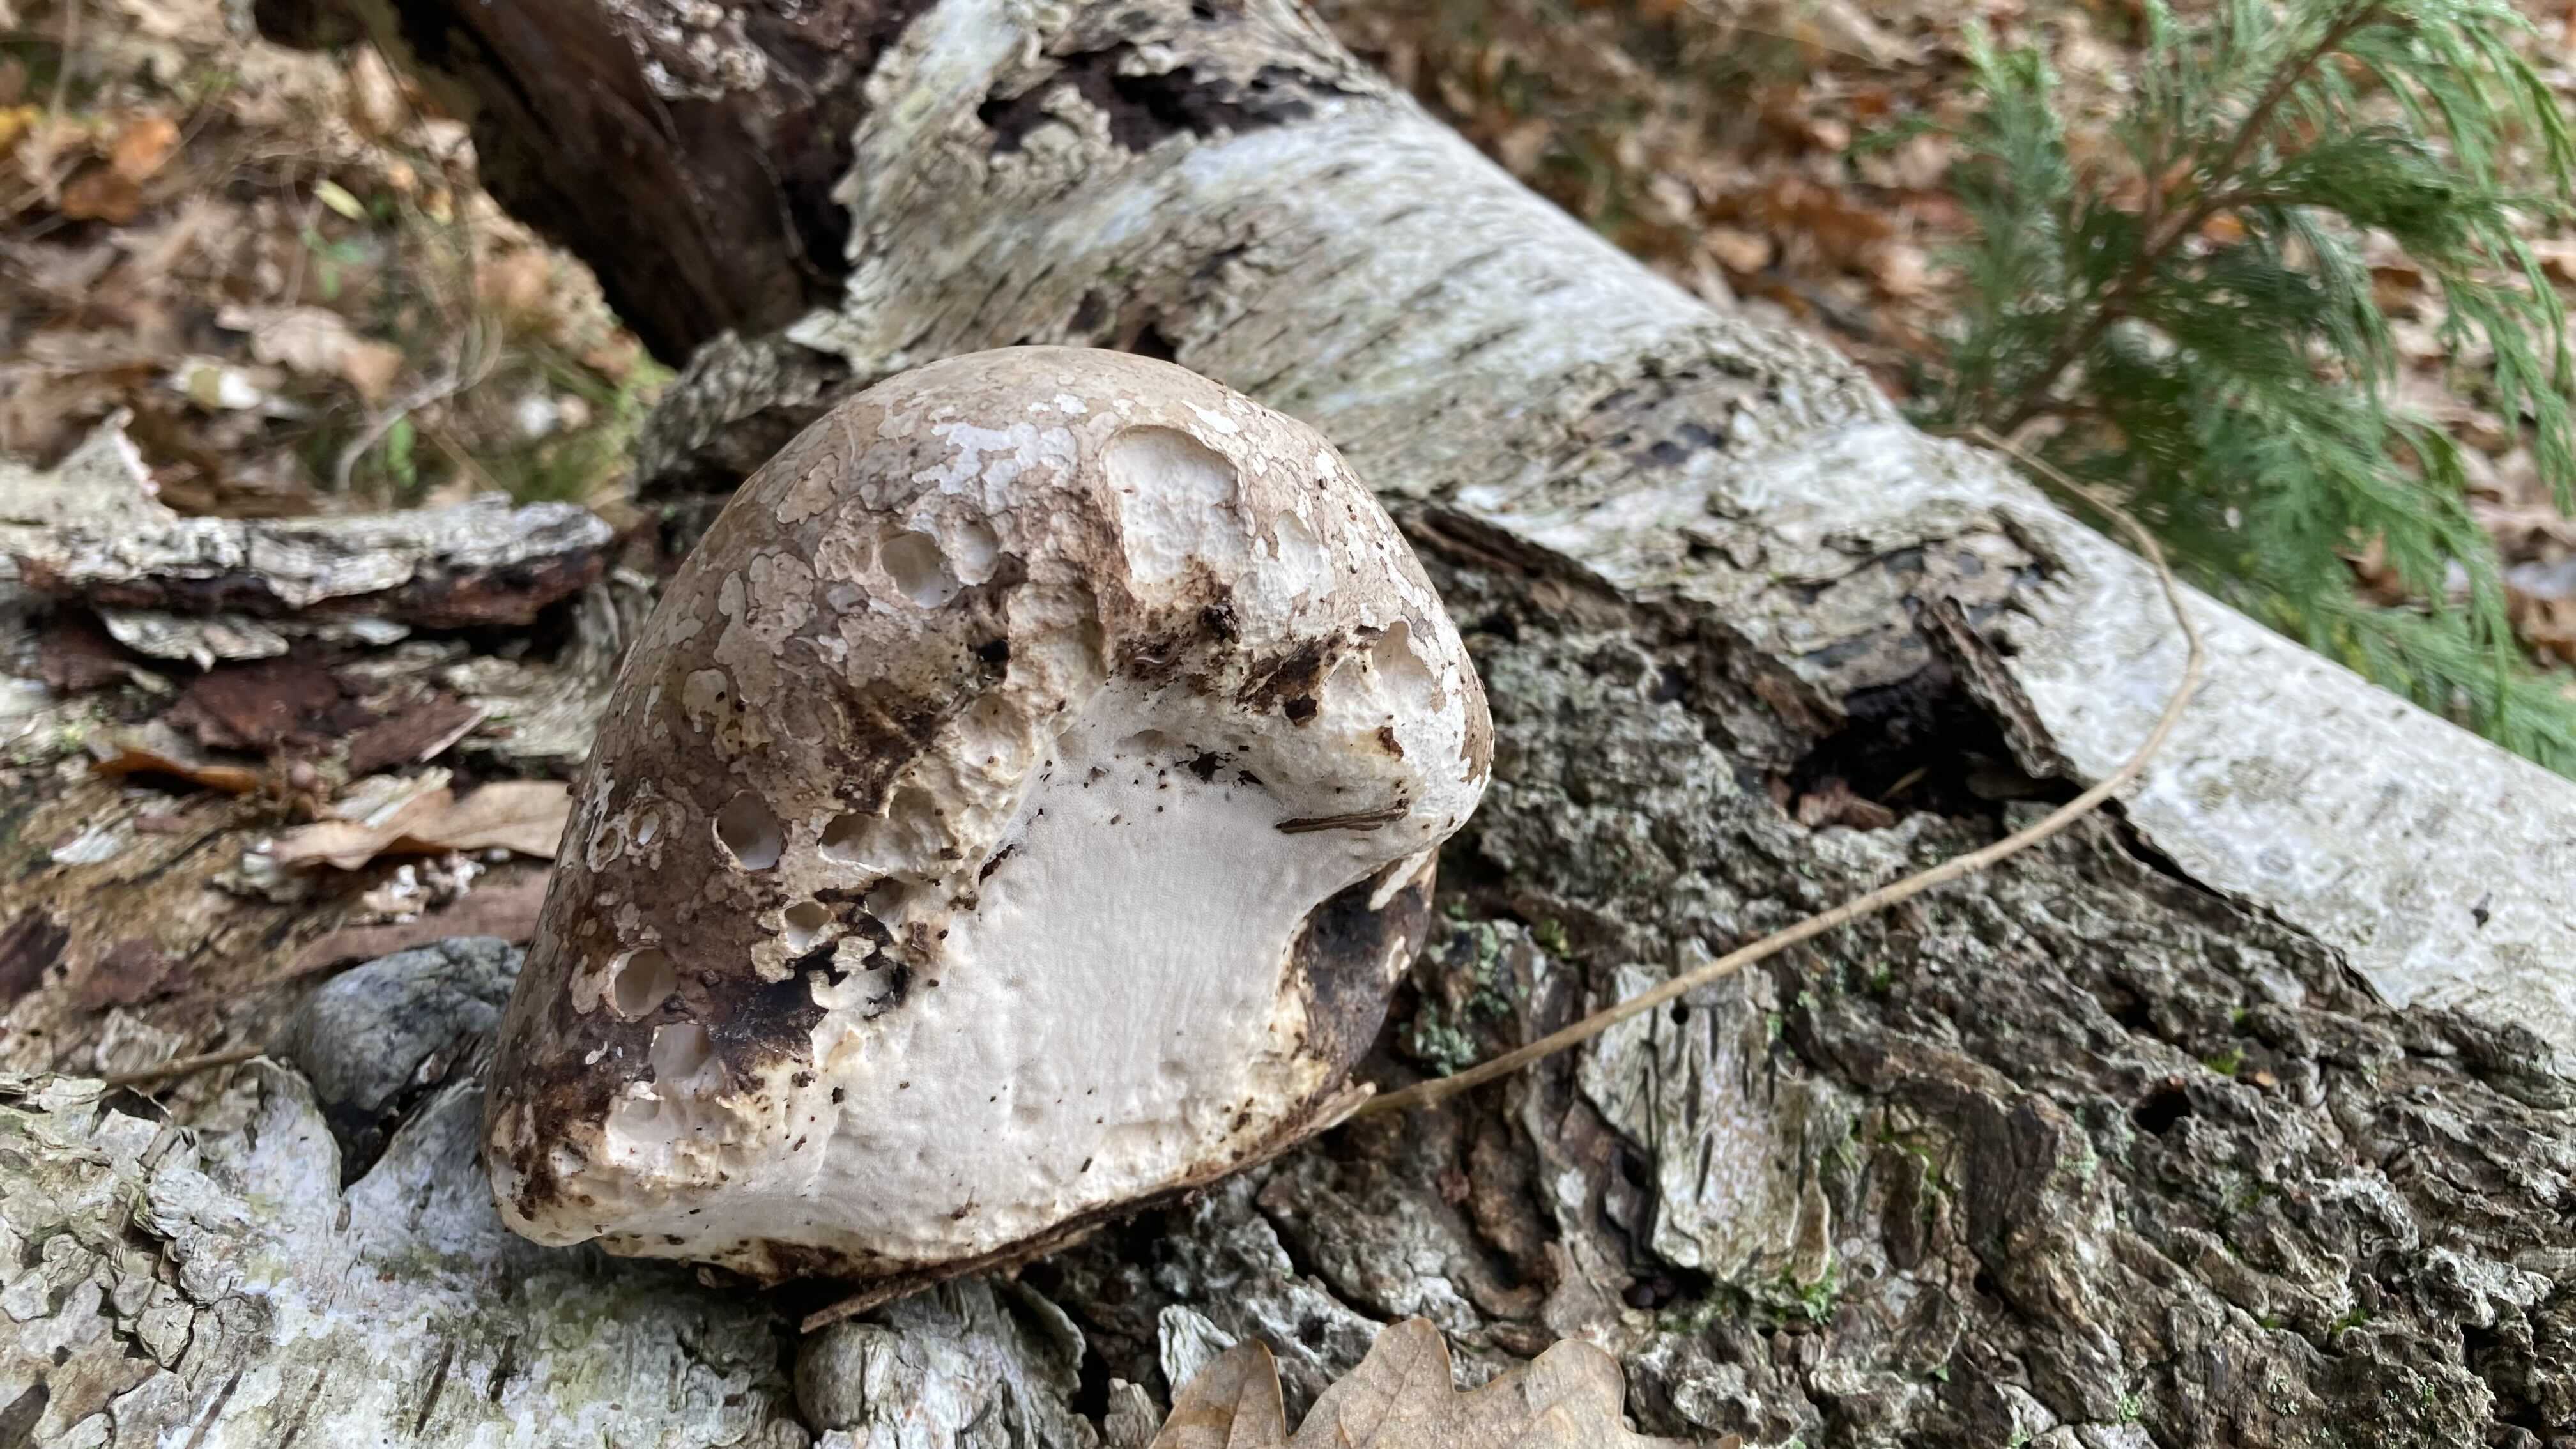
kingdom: Fungi
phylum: Basidiomycota
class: Agaricomycetes
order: Polyporales
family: Fomitopsidaceae
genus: Fomitopsis
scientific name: Fomitopsis betulina
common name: birkeporesvamp
